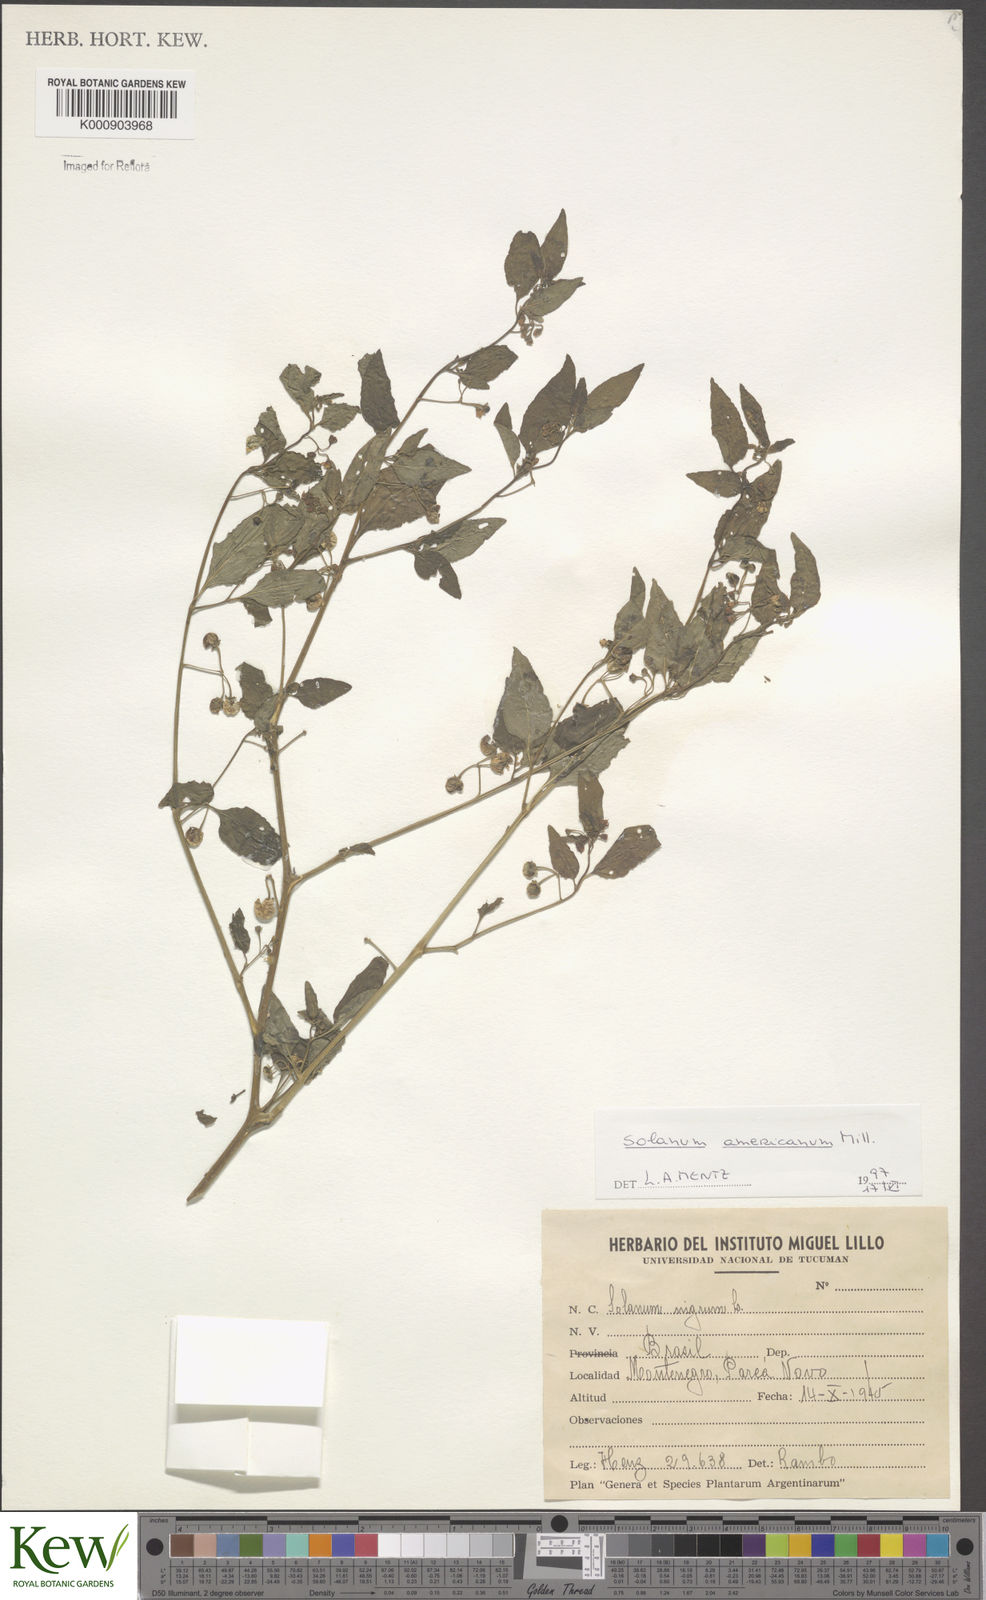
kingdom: Plantae
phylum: Tracheophyta
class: Magnoliopsida
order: Solanales
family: Solanaceae
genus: Solanum
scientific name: Solanum americanum
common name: American black nightshade
